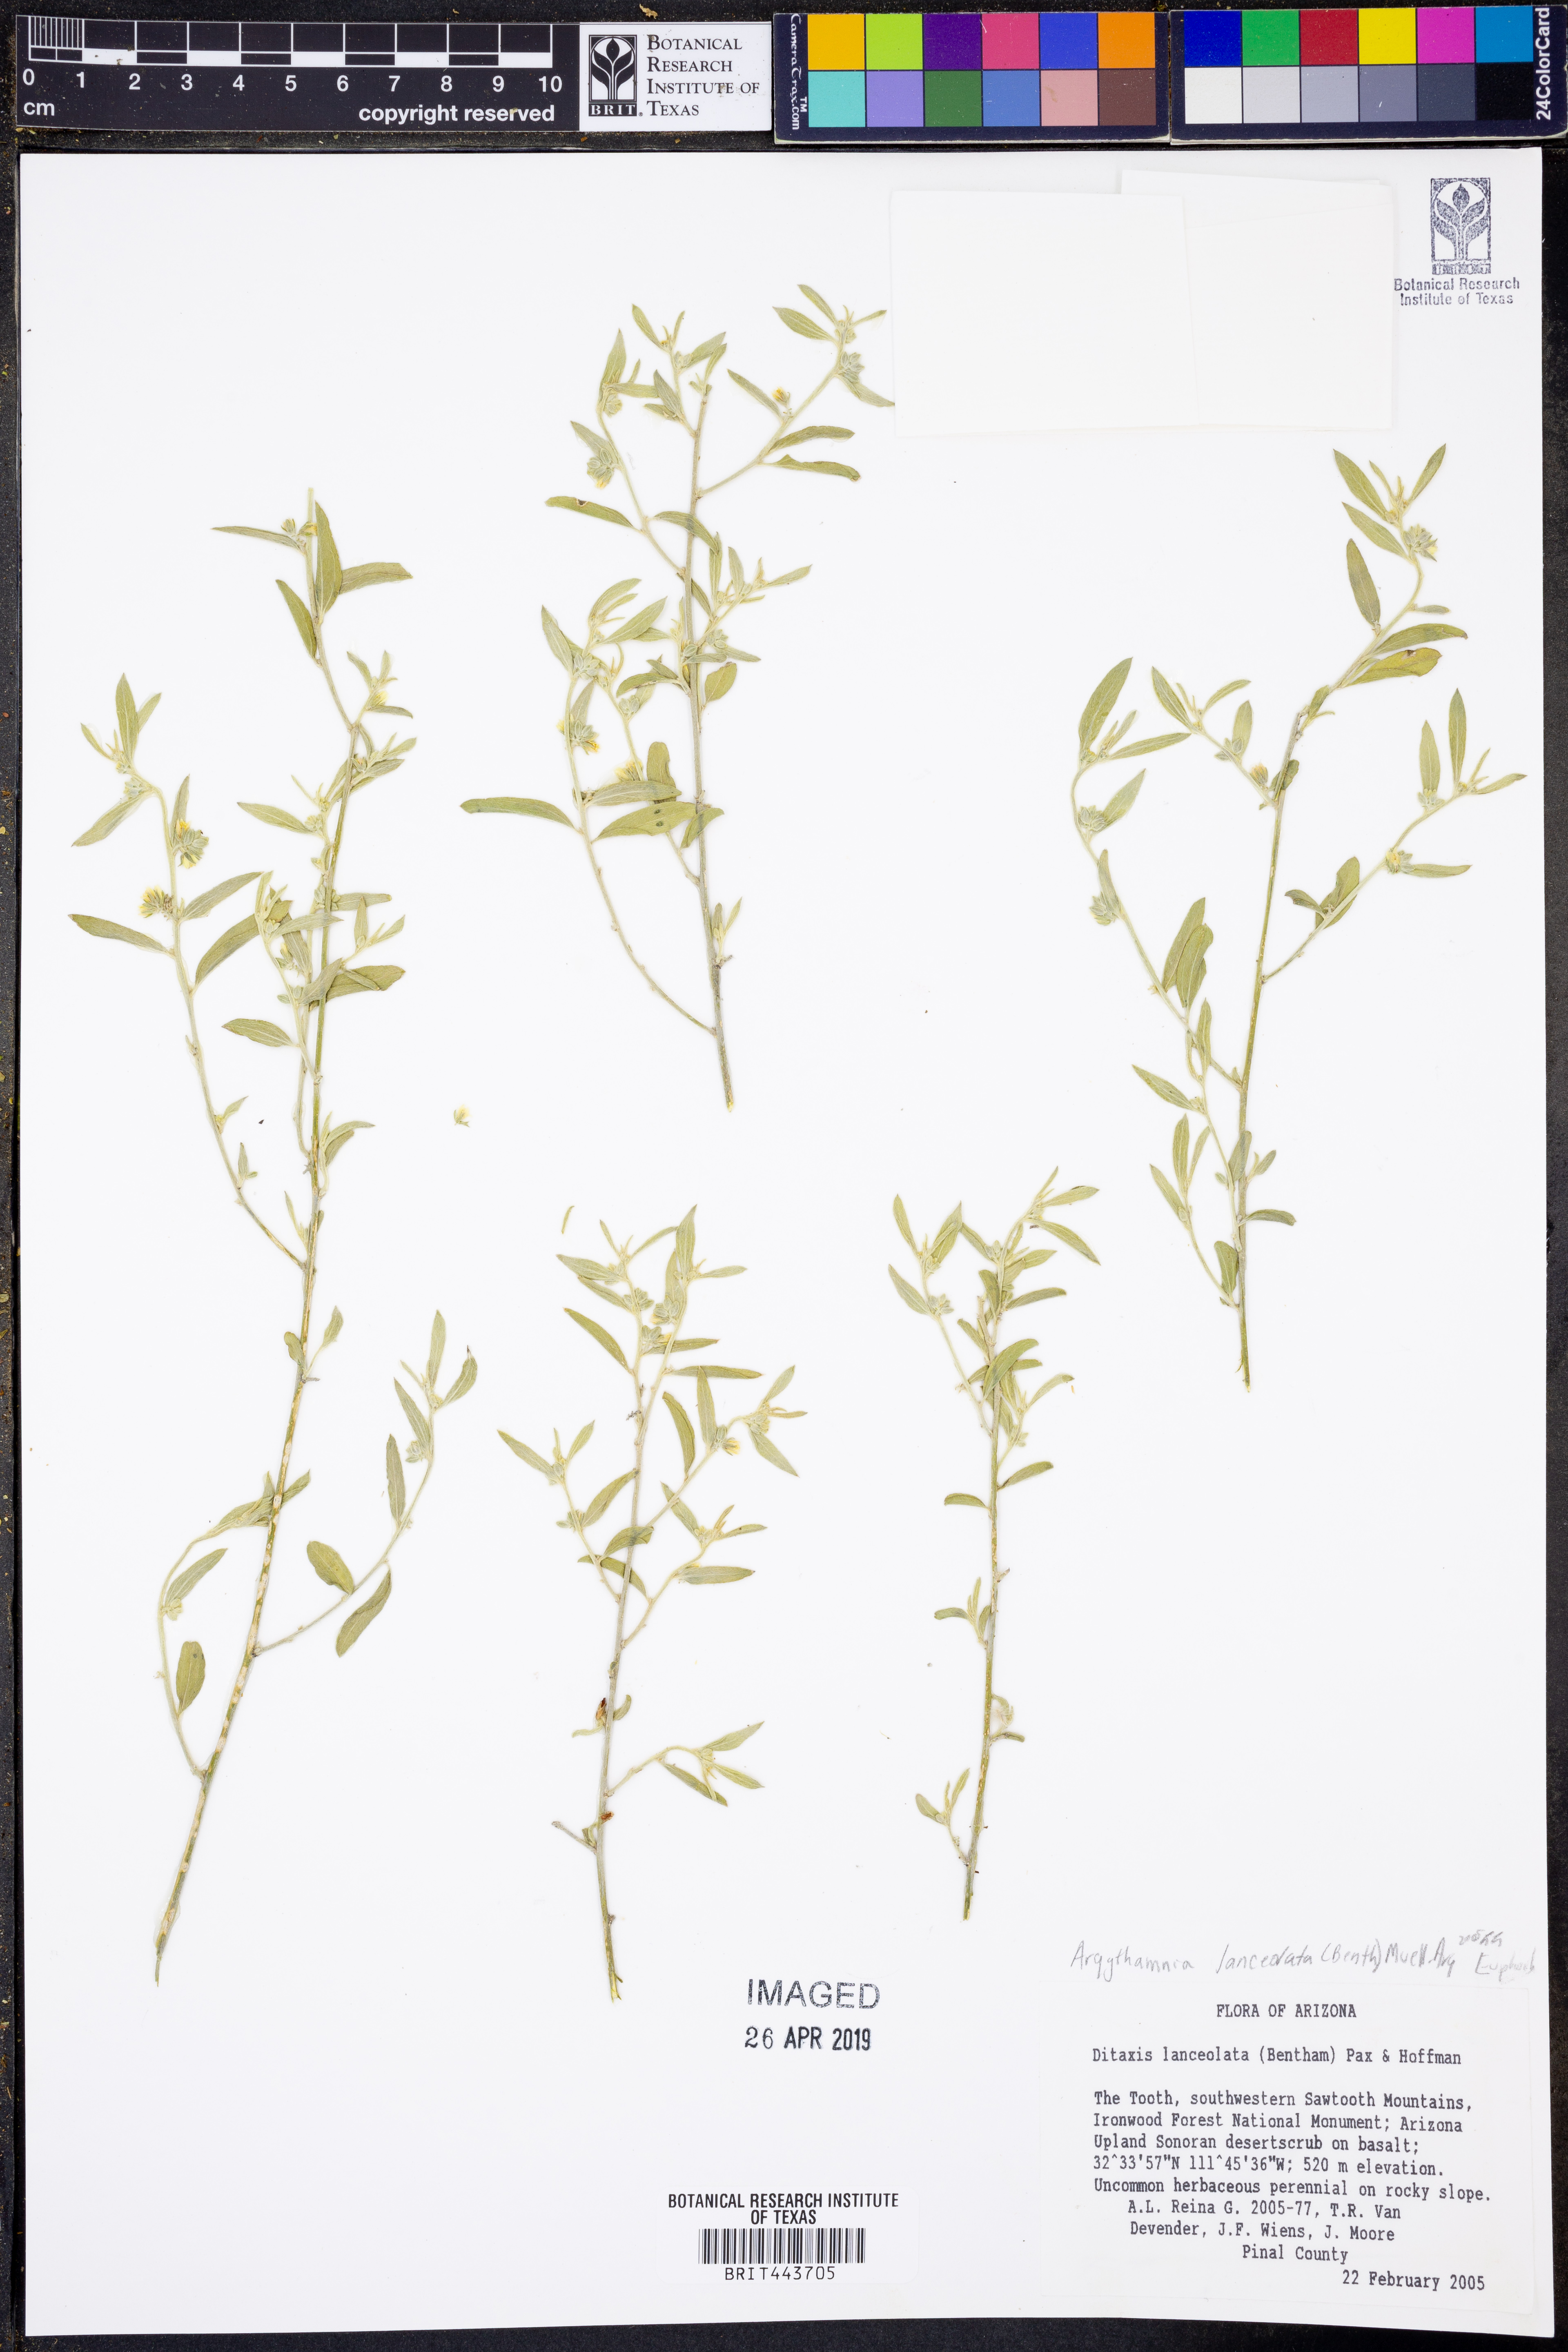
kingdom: Plantae
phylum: Tracheophyta
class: Magnoliopsida
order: Malpighiales
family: Euphorbiaceae
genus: Ditaxis
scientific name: Ditaxis lanceolata
